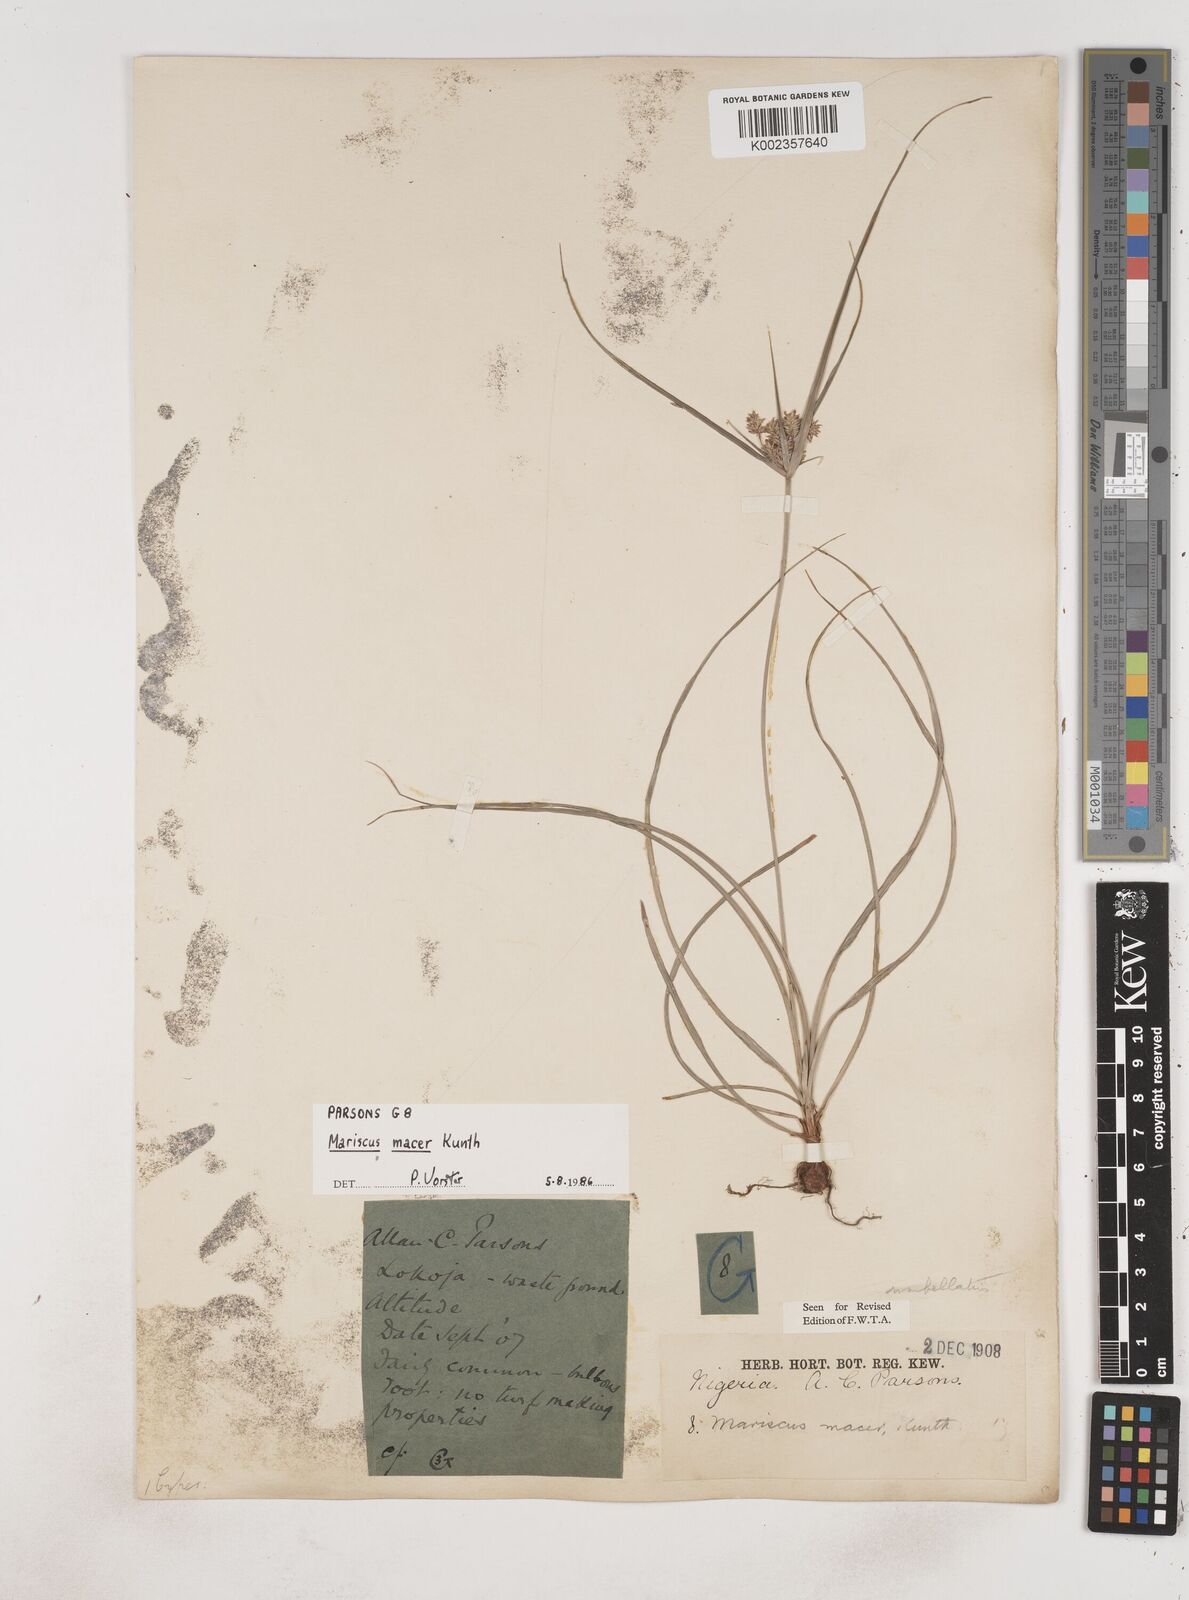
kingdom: Plantae
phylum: Tracheophyta
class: Liliopsida
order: Poales
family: Cyperaceae
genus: Cyperus
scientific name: Cyperus cyperoides
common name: Pacific island flat sedge
